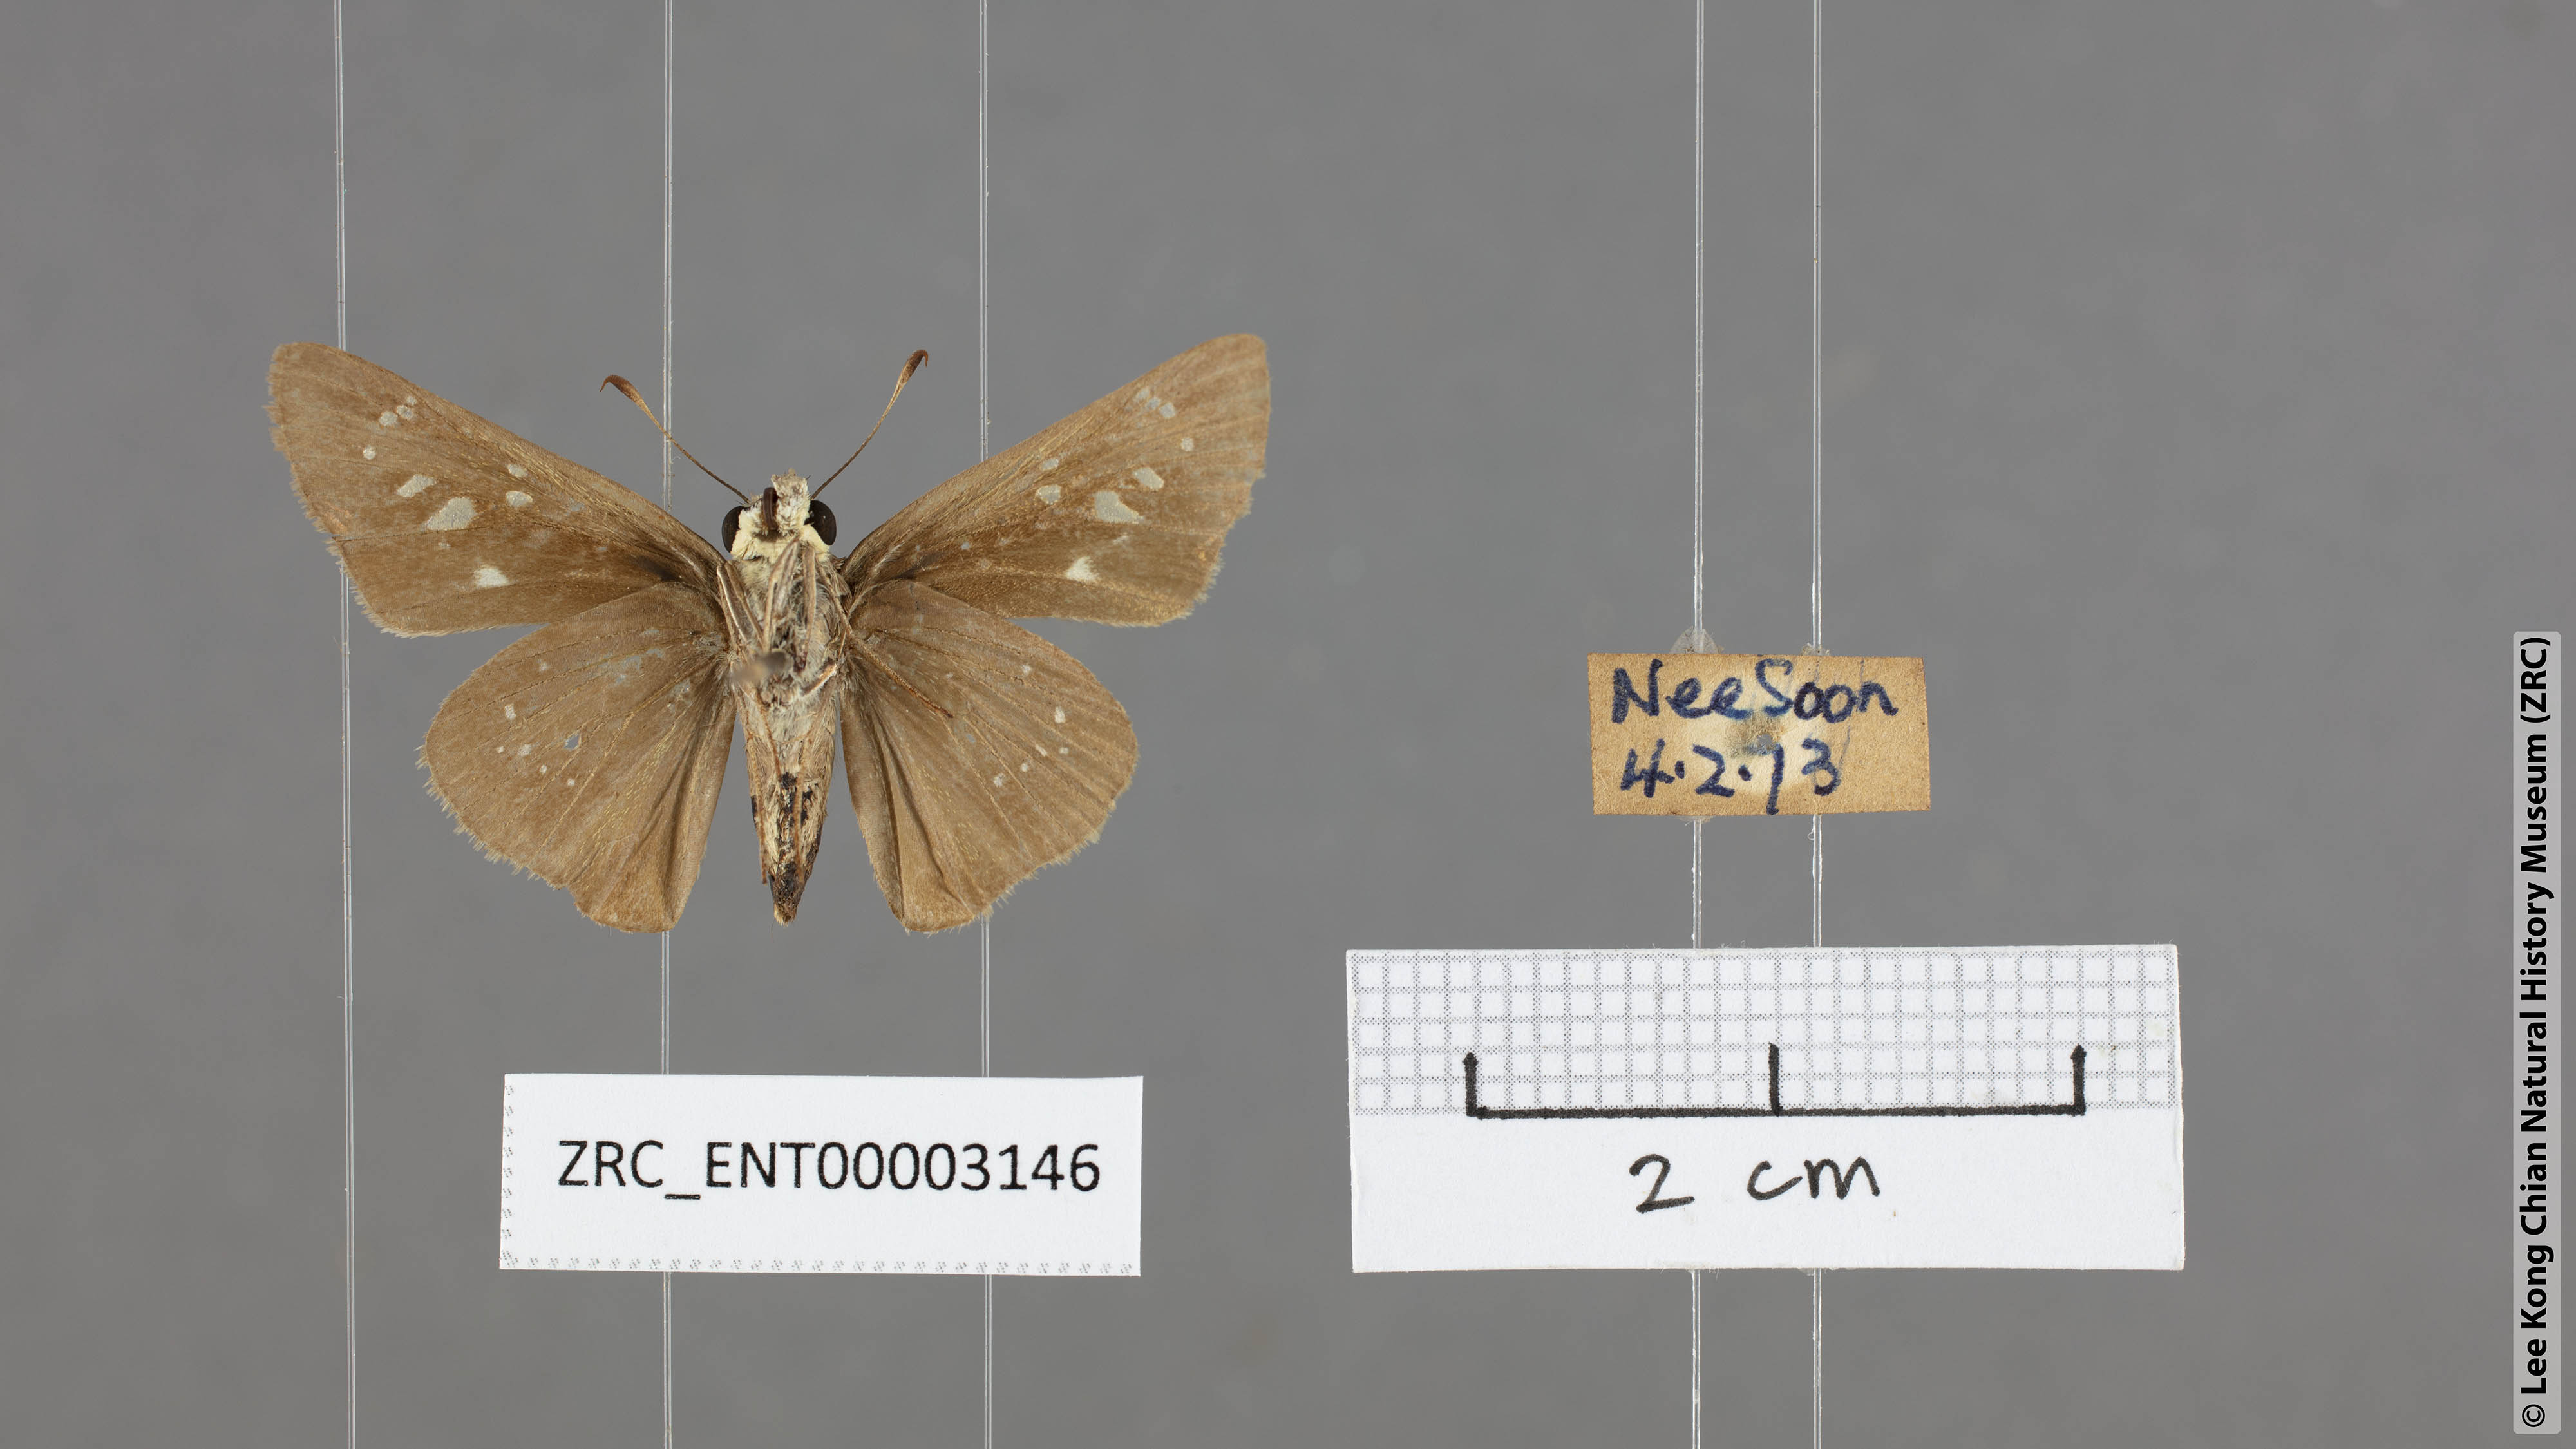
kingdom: Animalia
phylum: Arthropoda
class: Insecta
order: Lepidoptera
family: Hesperiidae
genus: Borbo
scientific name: Borbo cinnara
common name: Formosan swift
